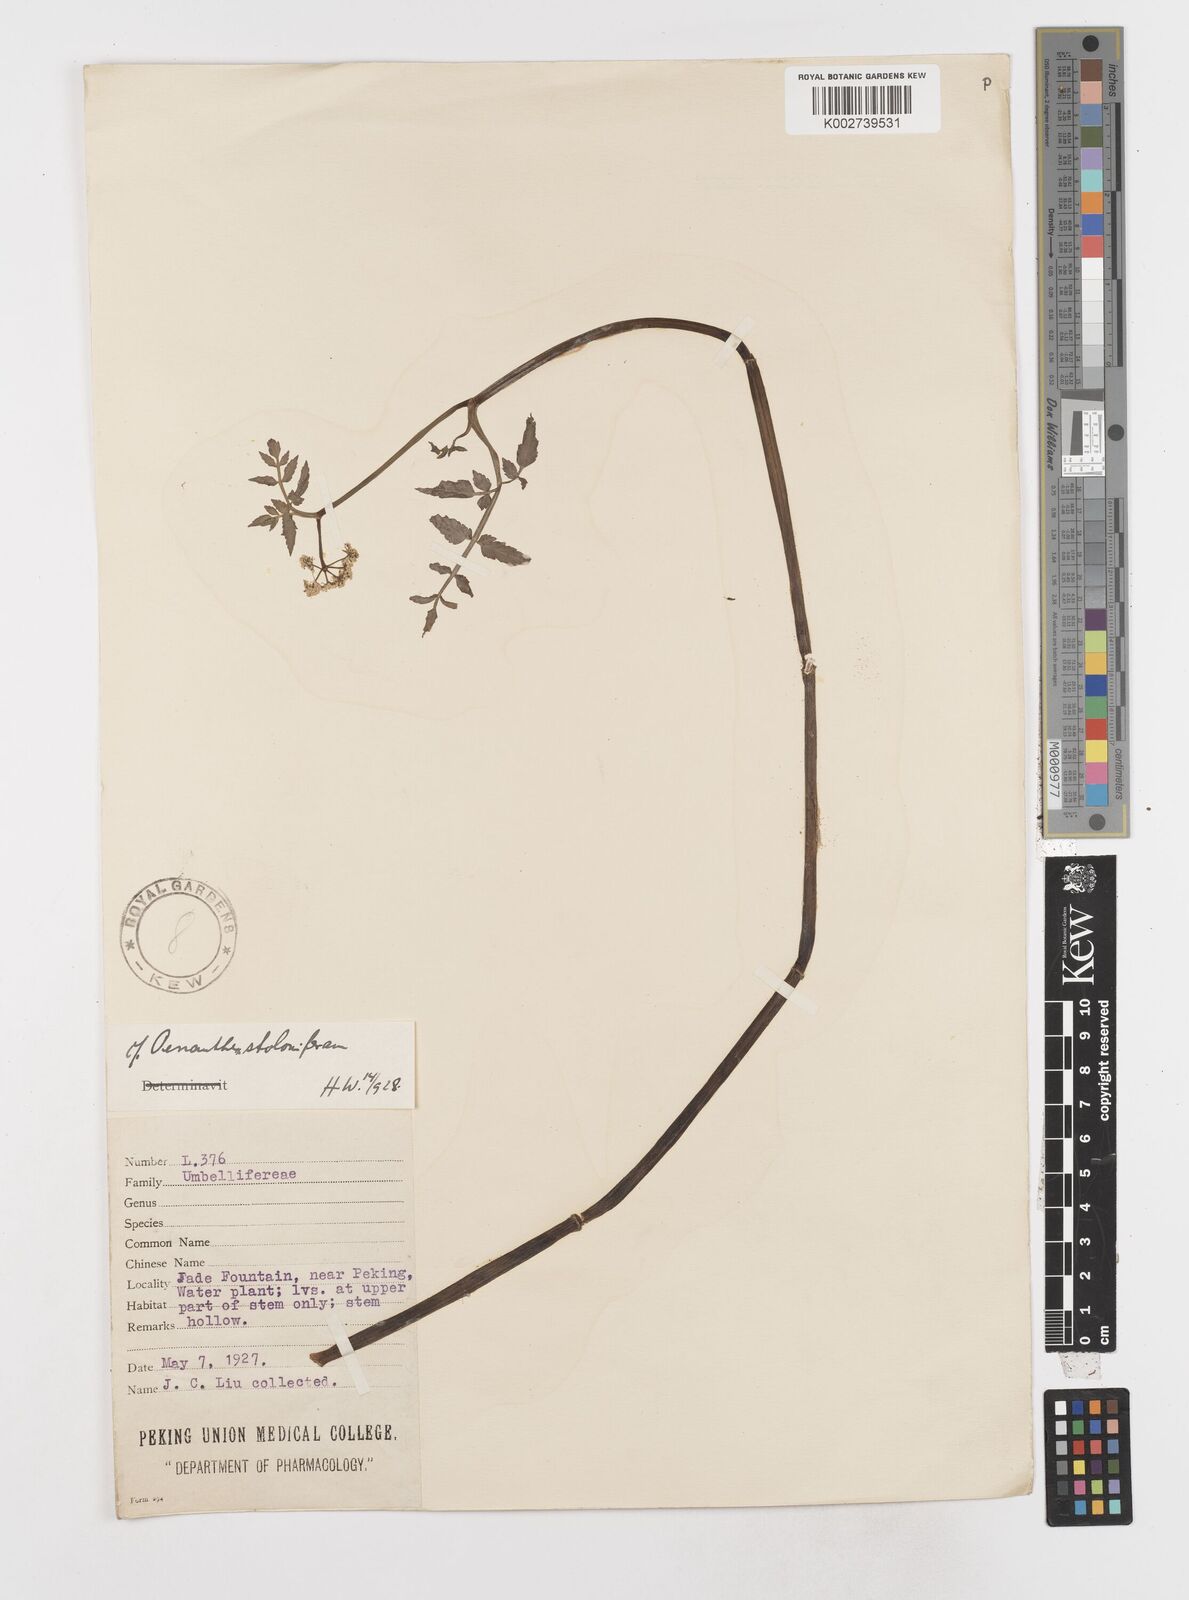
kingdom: Plantae
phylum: Tracheophyta
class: Magnoliopsida
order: Apiales
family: Apiaceae
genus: Oenanthe
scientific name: Oenanthe javanica
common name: Java water-dropwort
